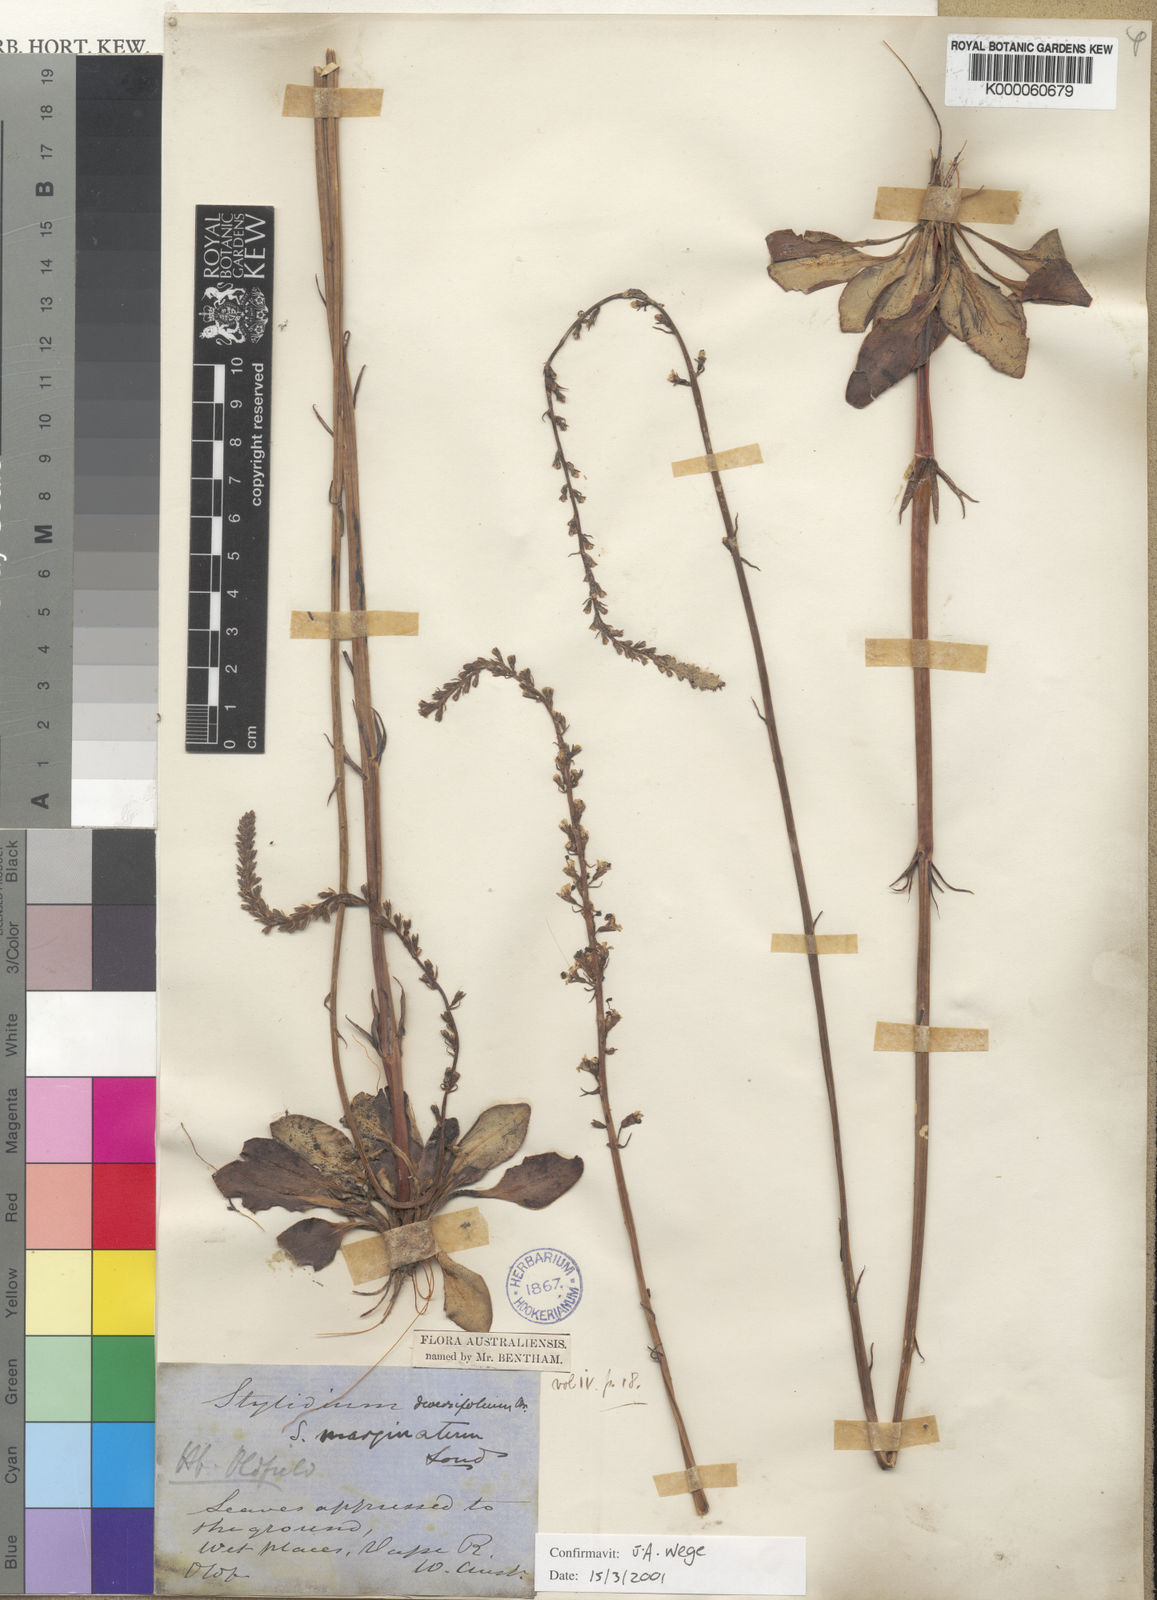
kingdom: Plantae
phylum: Tracheophyta
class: Magnoliopsida
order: Asterales
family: Stylidiaceae
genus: Stylidium
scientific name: Stylidium diversifolium
